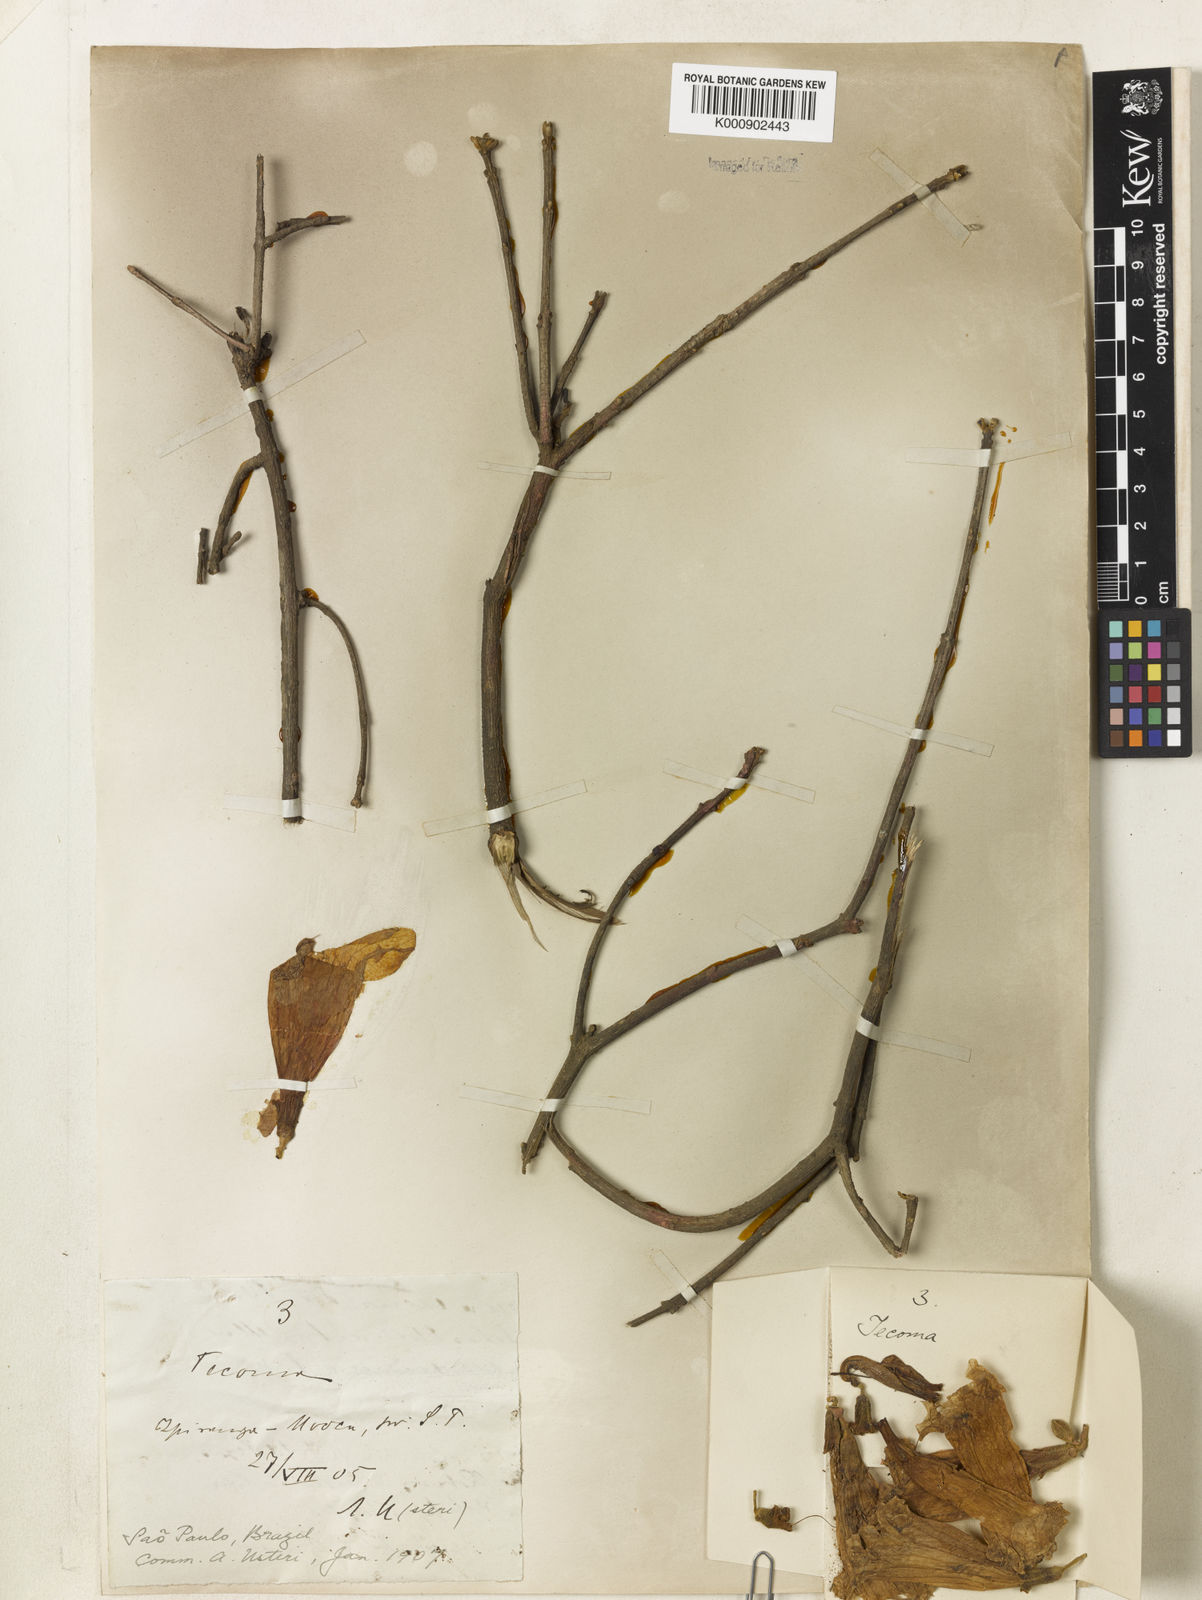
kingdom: Plantae
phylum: Tracheophyta
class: Magnoliopsida
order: Lamiales
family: Bignoniaceae
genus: Handroanthus
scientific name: Handroanthus ochraceus
